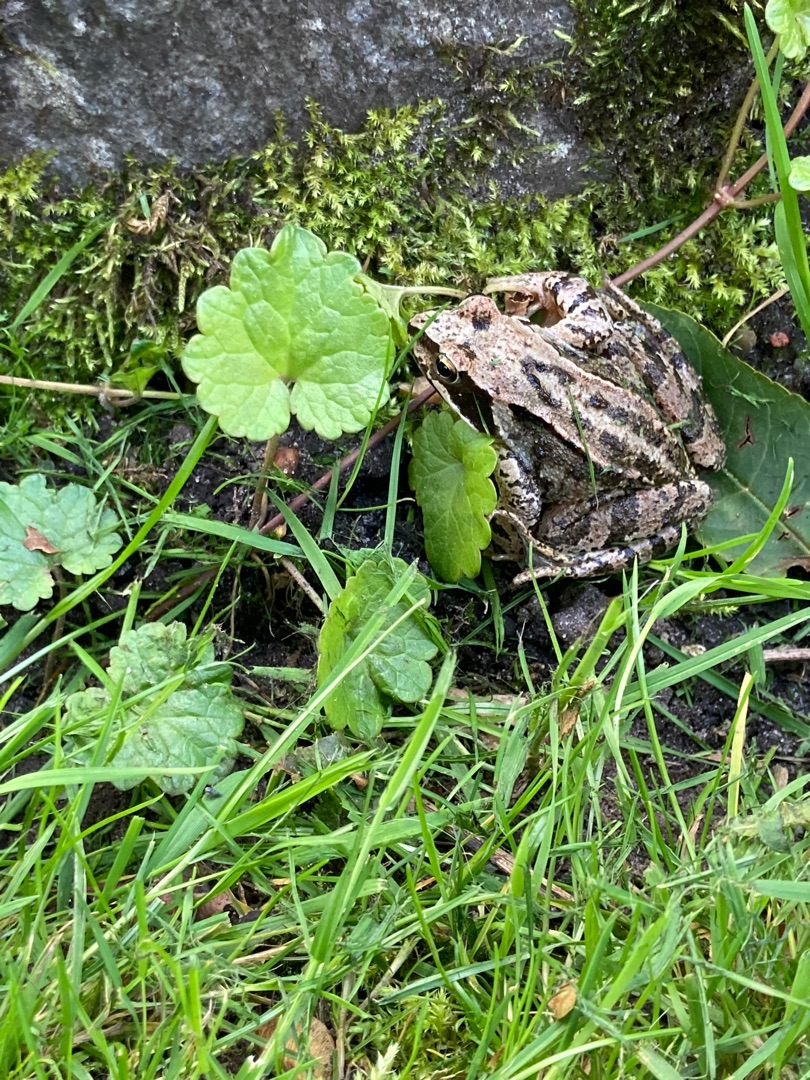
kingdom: Animalia
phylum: Chordata
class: Amphibia
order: Anura
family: Ranidae
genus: Rana
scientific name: Rana temporaria
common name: Butsnudet frø
